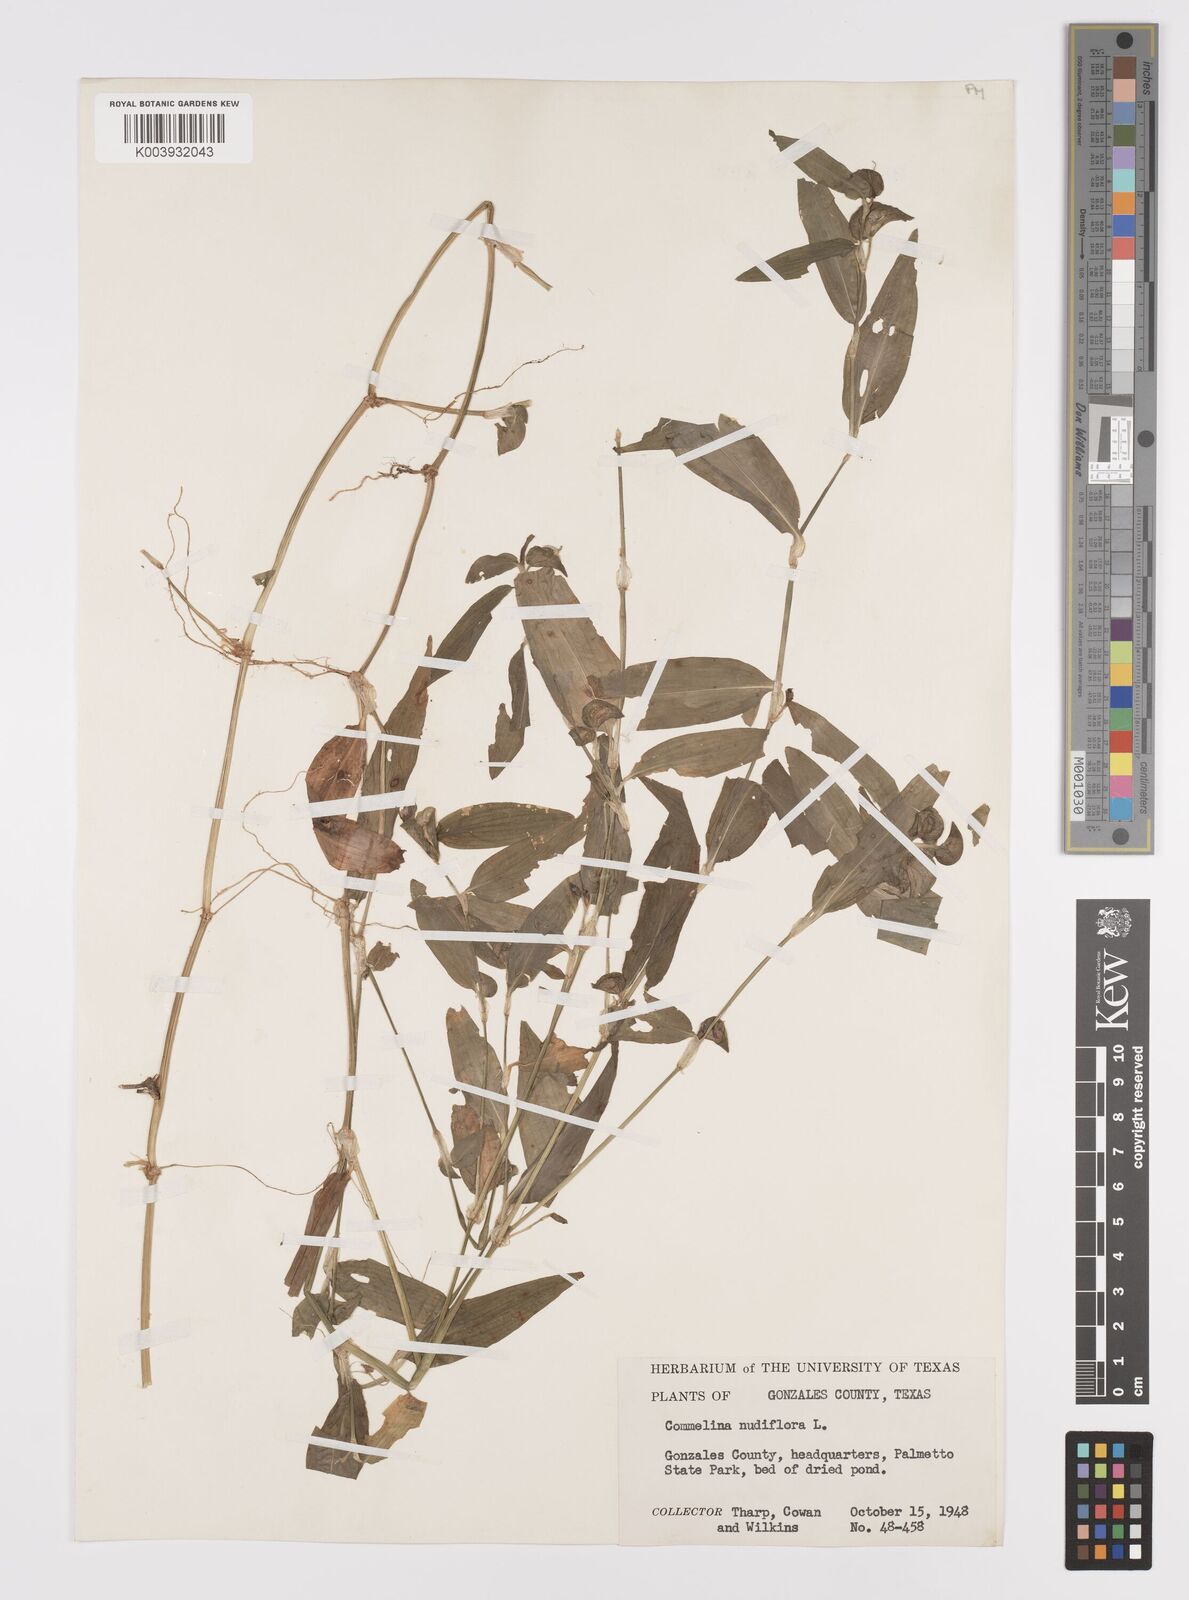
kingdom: Plantae
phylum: Tracheophyta
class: Liliopsida
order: Commelinales
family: Commelinaceae
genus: Murdannia
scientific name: Murdannia nudiflora
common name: Nakedstem dewflower
